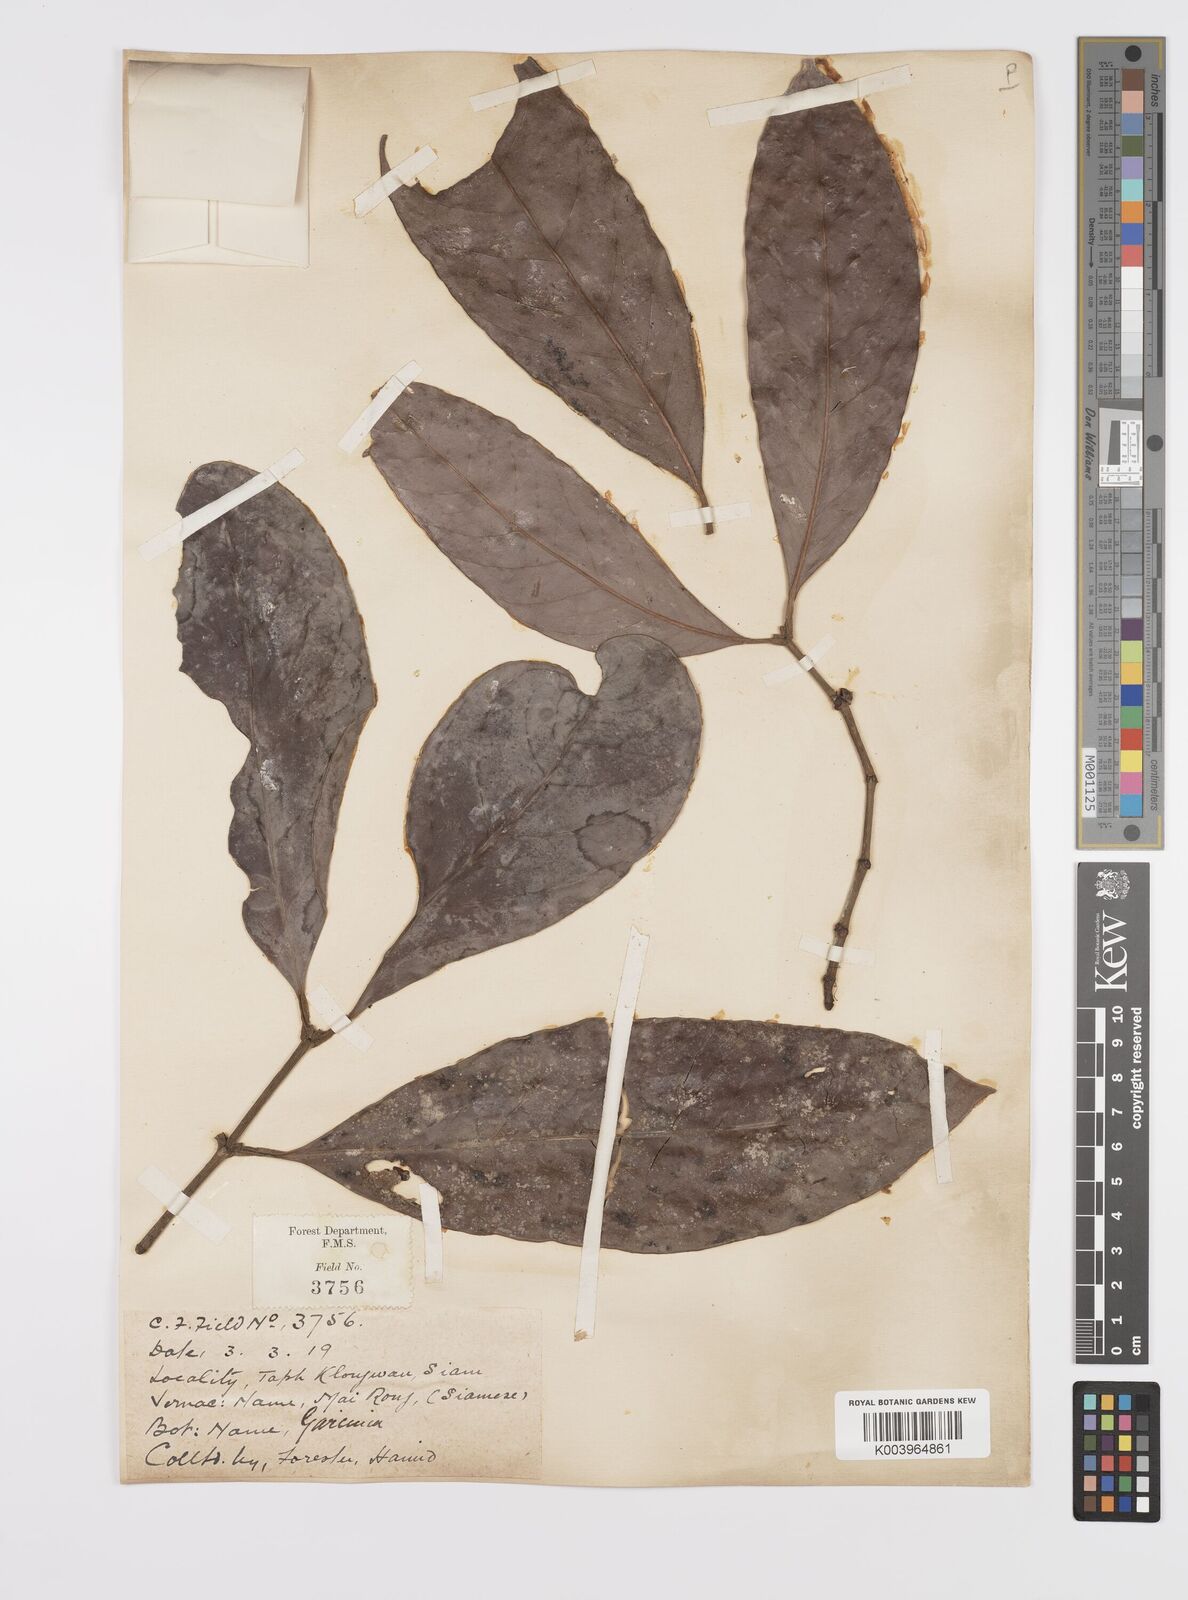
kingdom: Plantae
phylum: Tracheophyta
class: Magnoliopsida
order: Malpighiales
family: Clusiaceae
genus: Garcinia
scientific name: Garcinia
